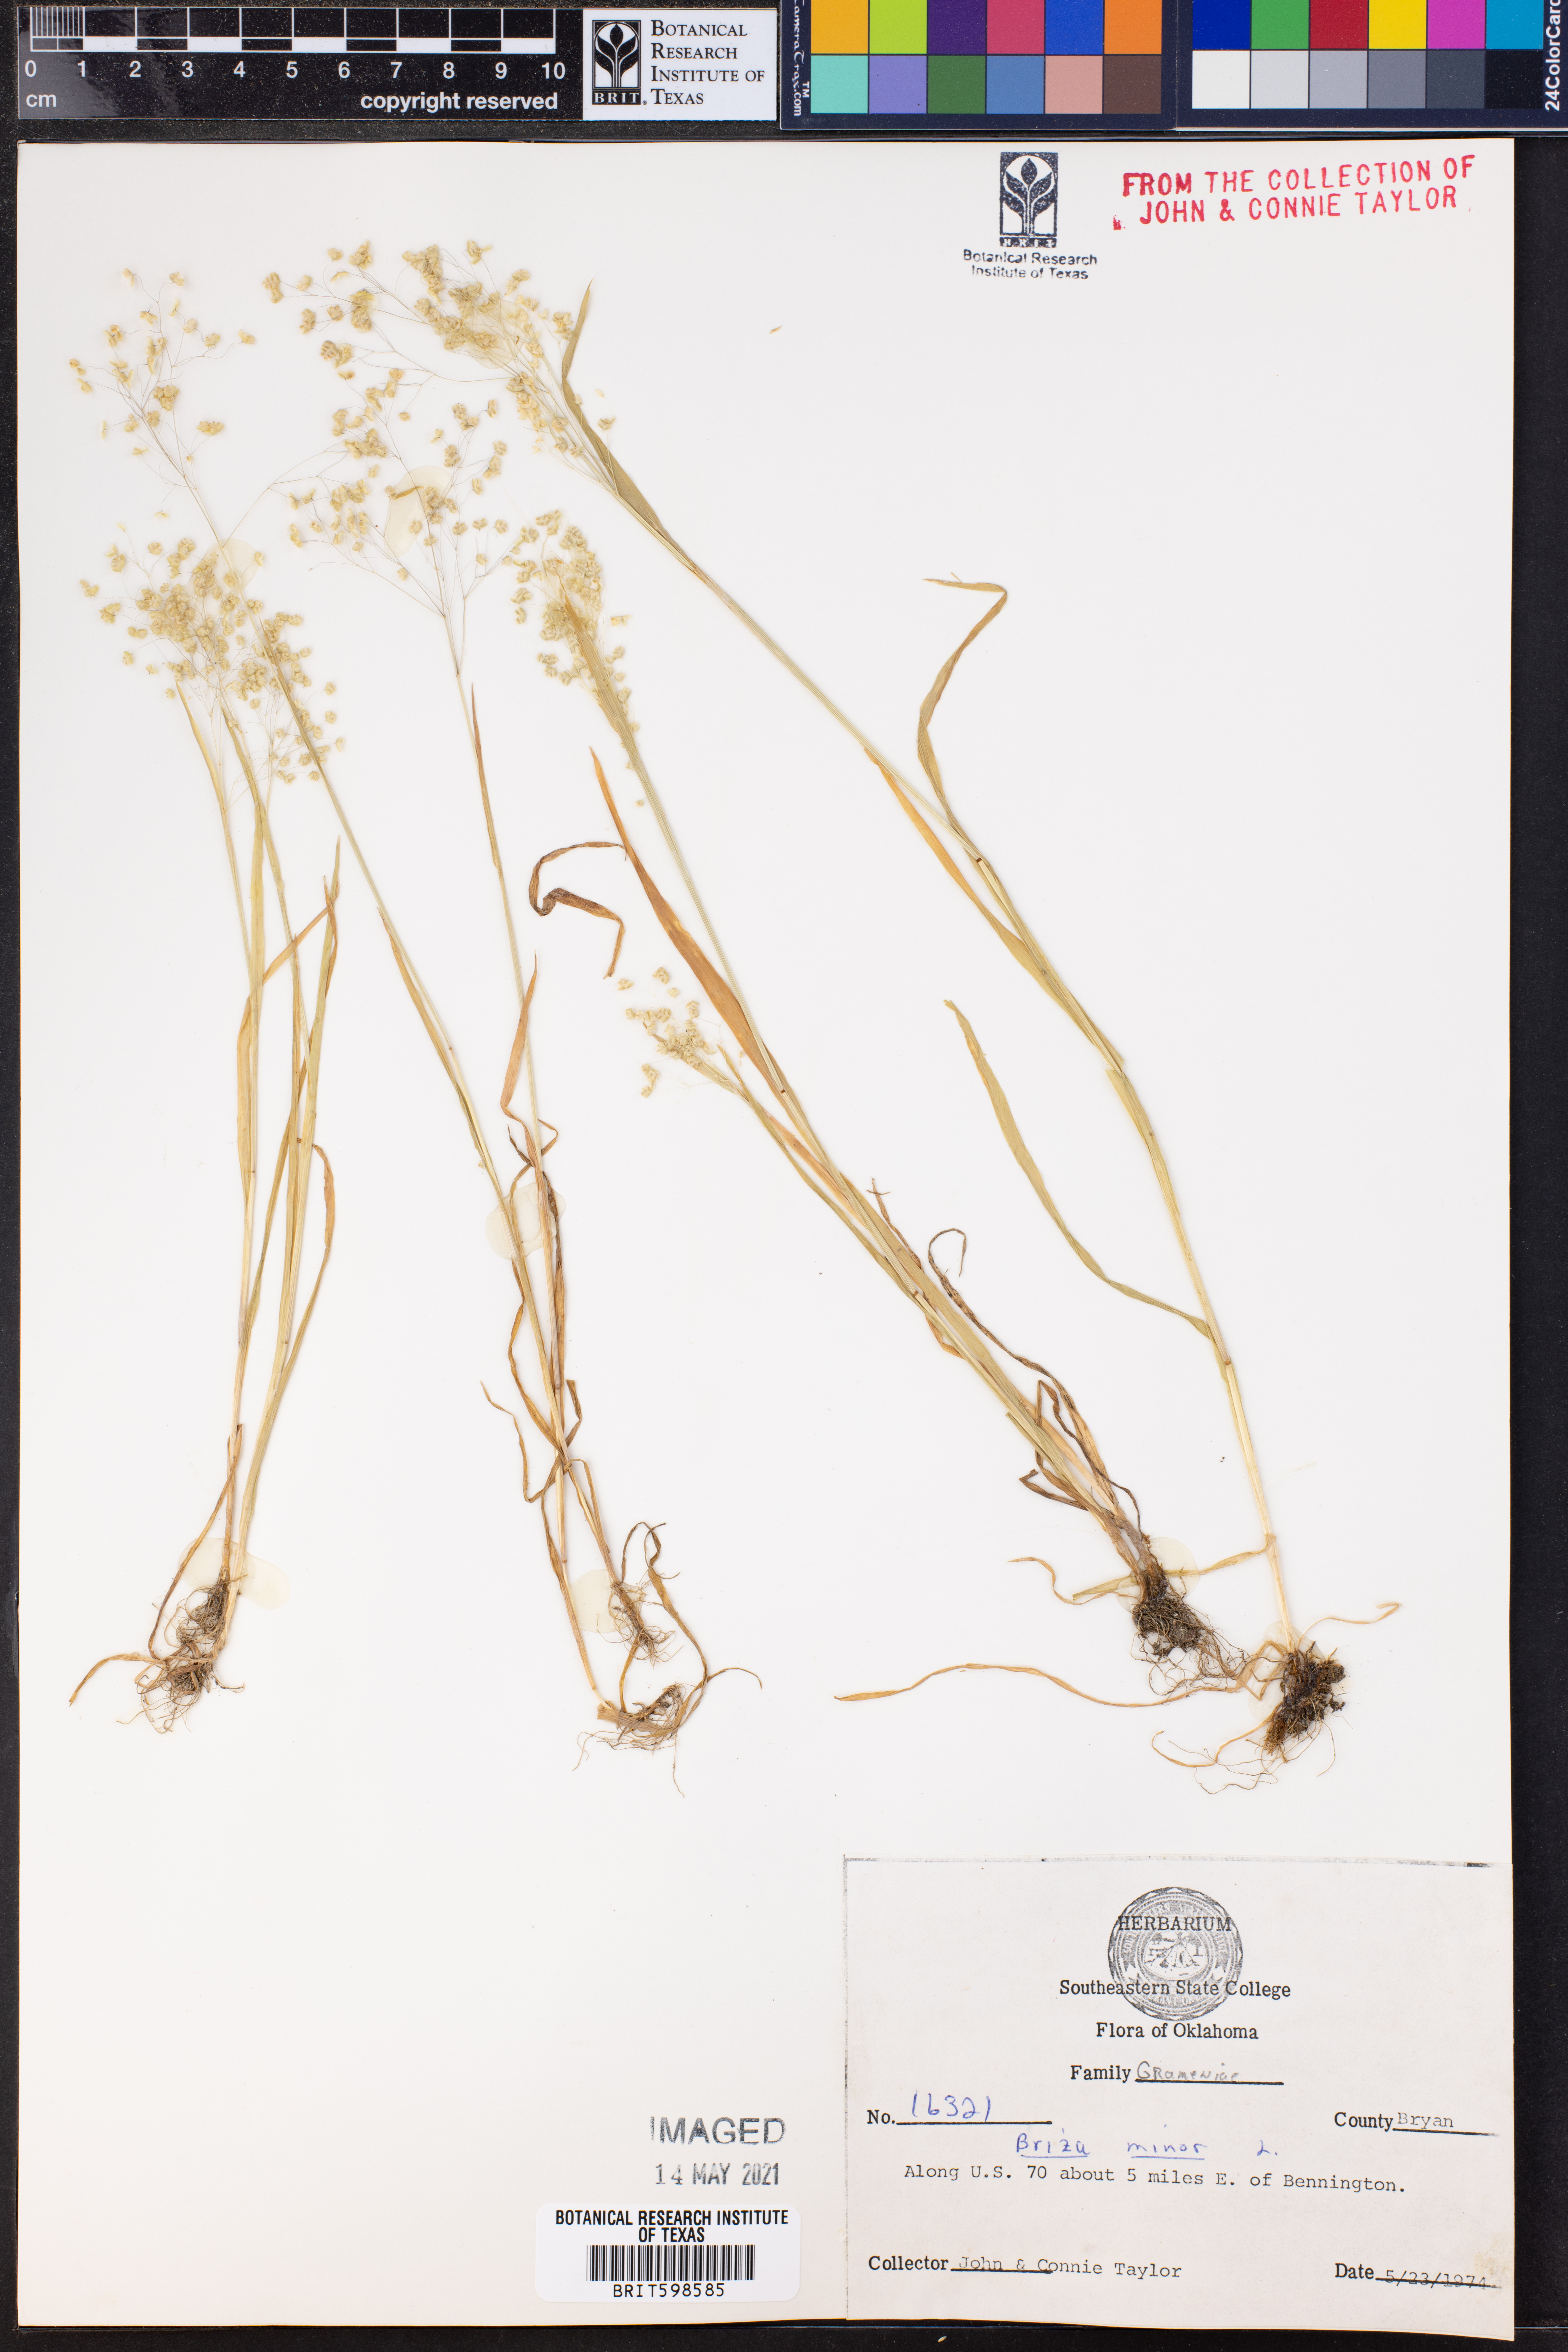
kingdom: Plantae
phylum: Tracheophyta
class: Liliopsida
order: Poales
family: Poaceae
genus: Briza
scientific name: Briza minor
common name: Lesser quaking-grass
